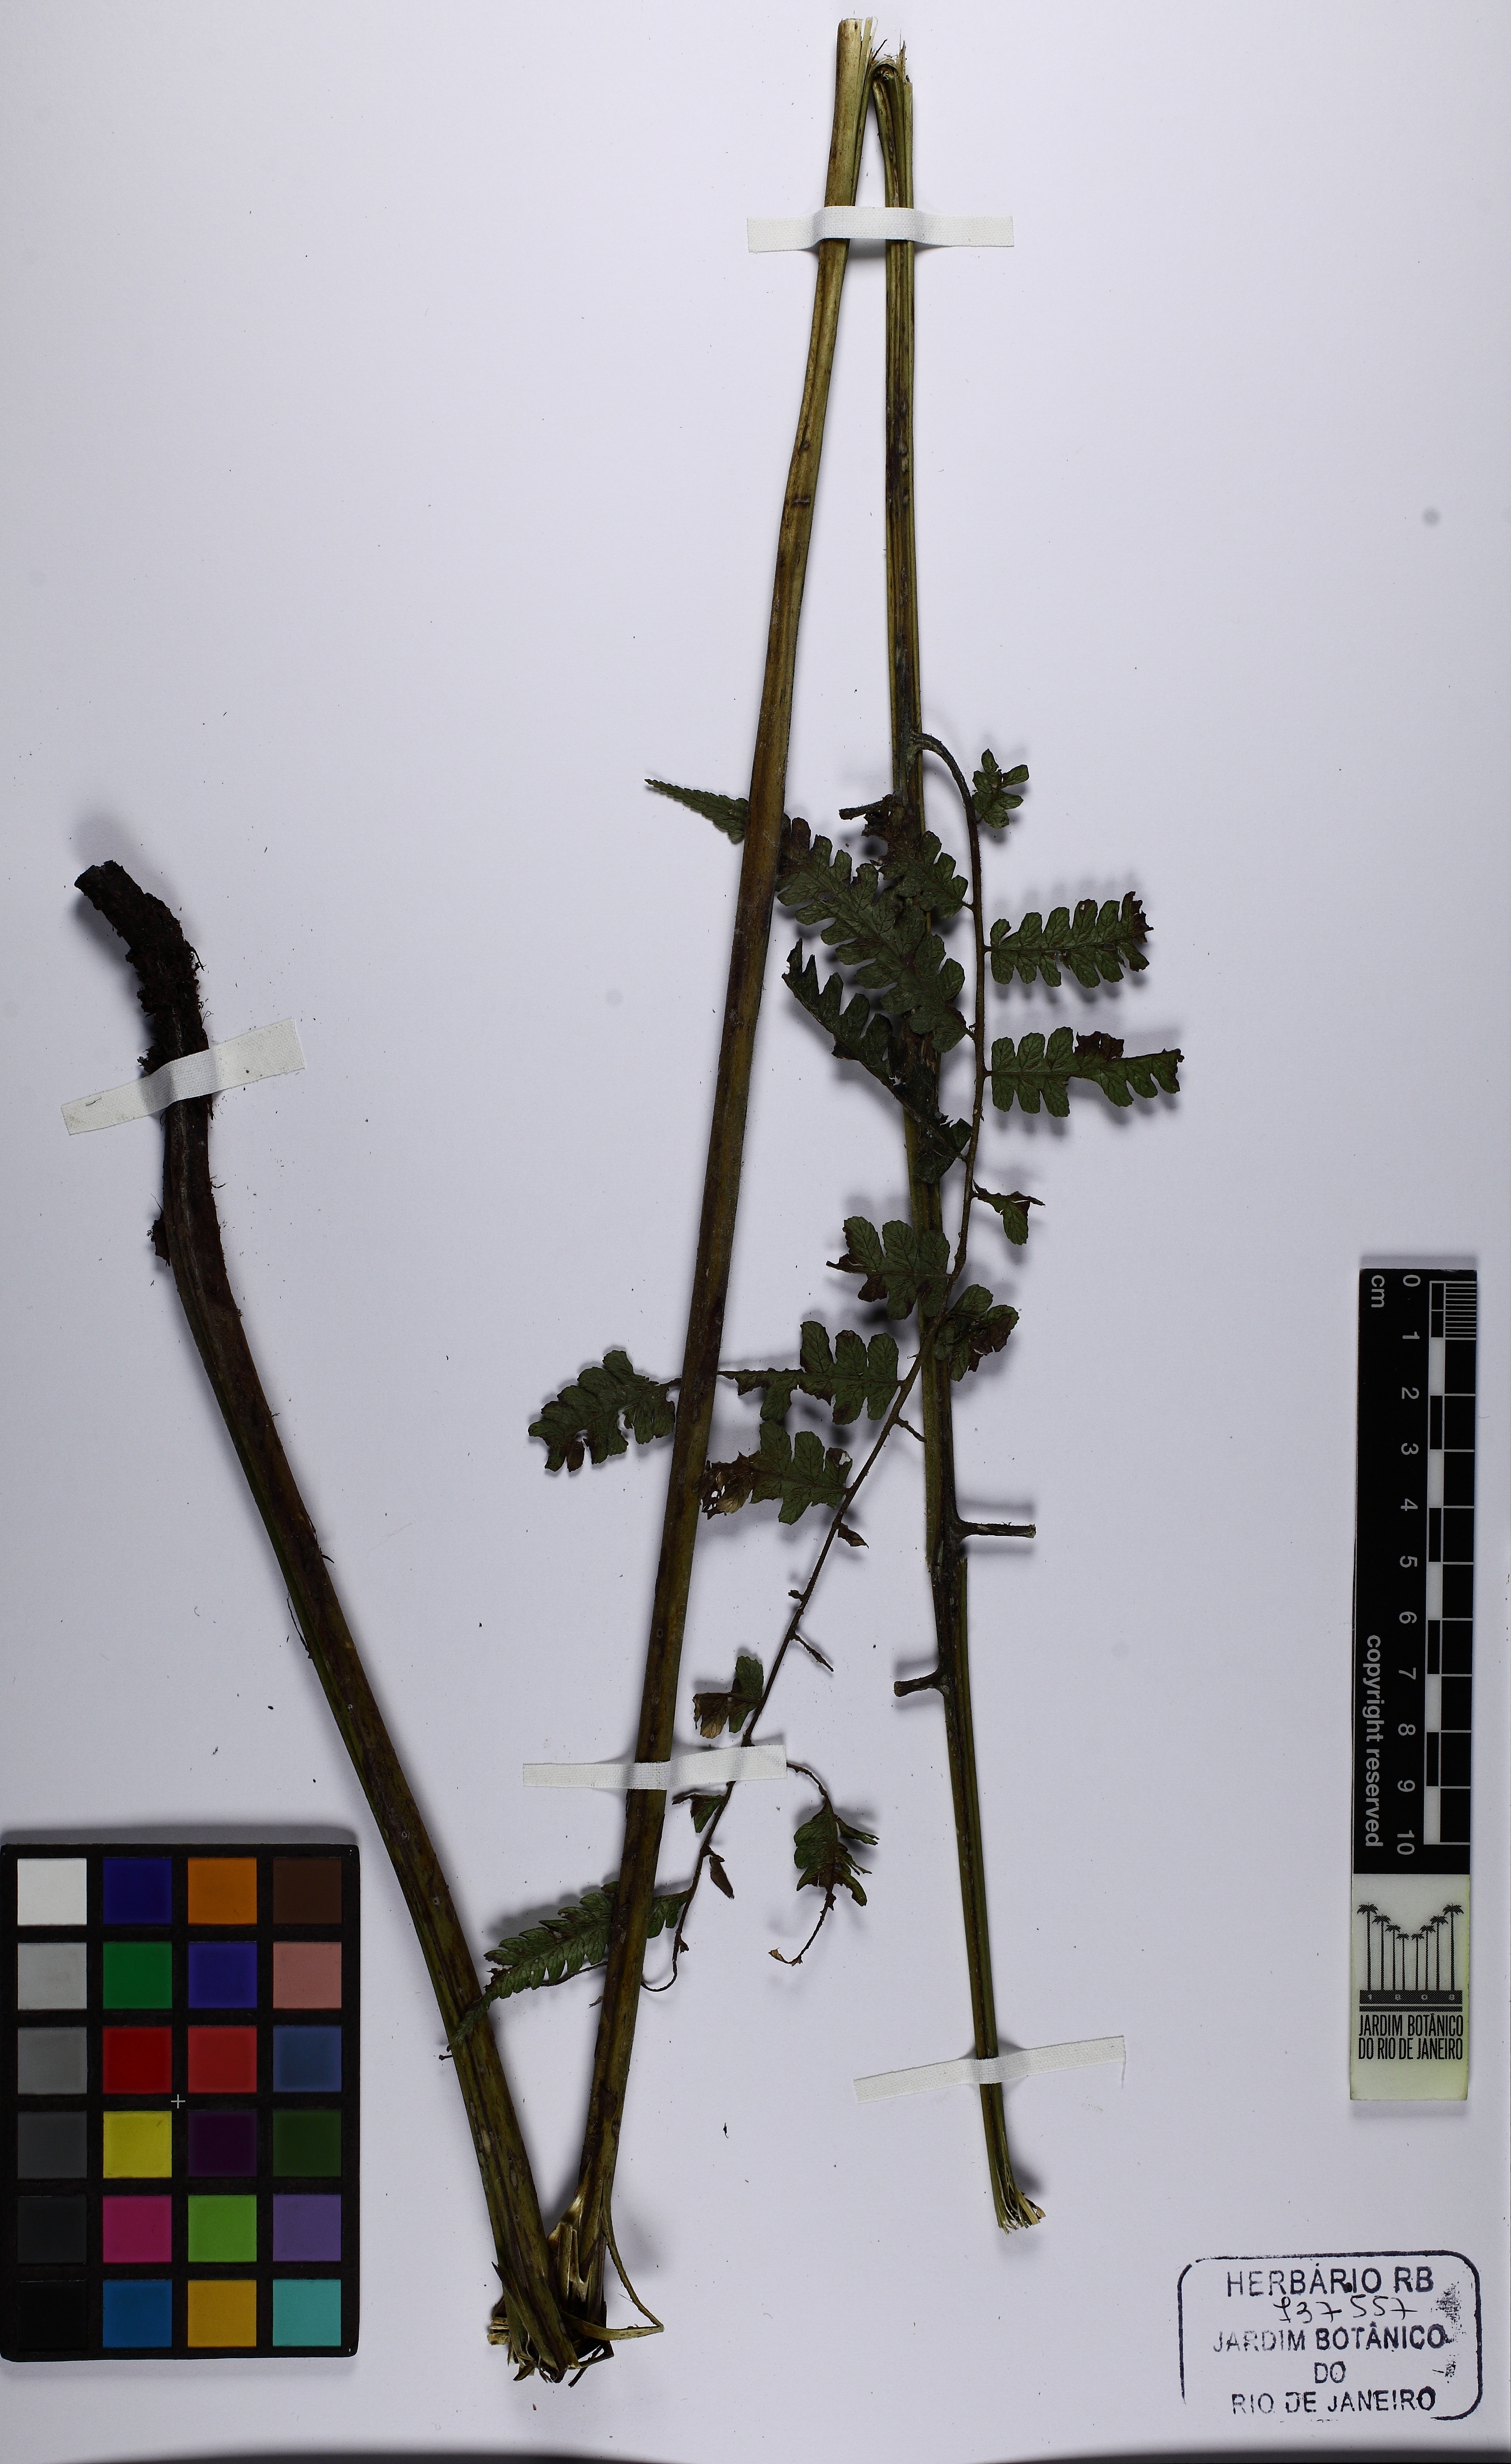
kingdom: Plantae
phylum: Tracheophyta
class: Polypodiopsida
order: Polypodiales
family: Athyriaceae
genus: Diplazium
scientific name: Diplazium expansum
